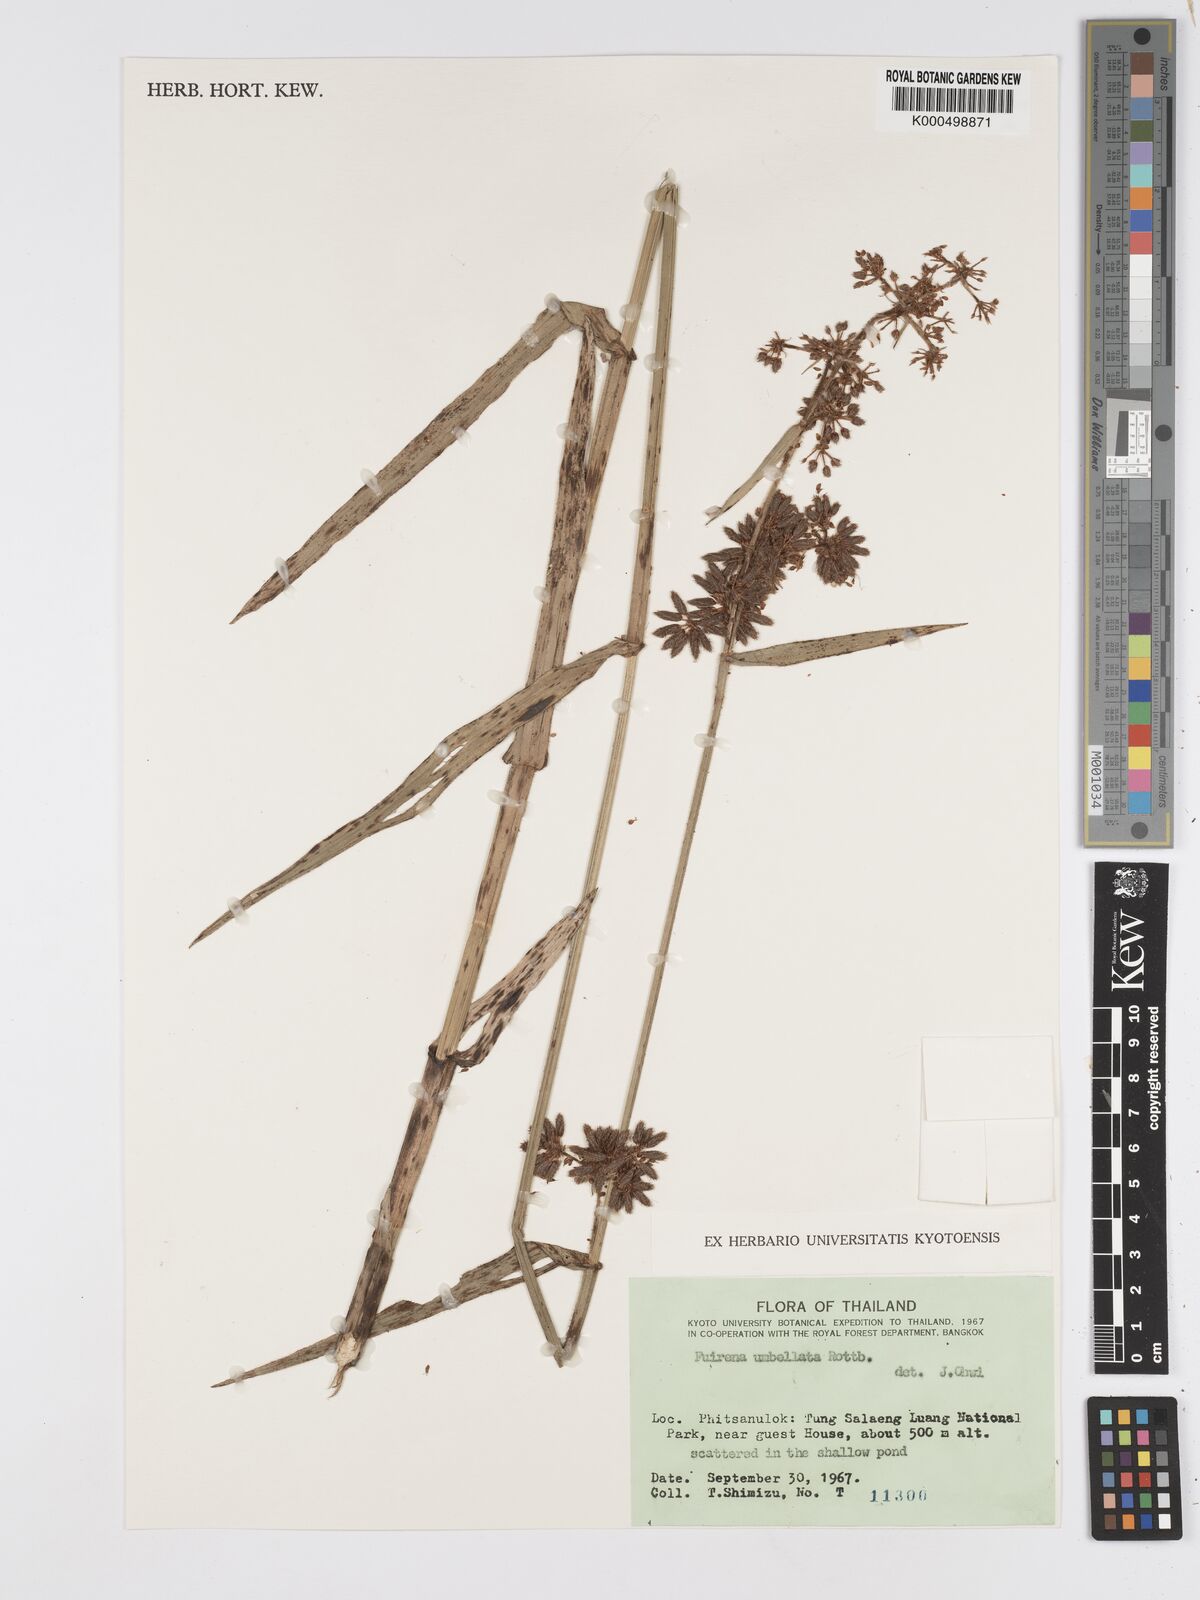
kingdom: Plantae
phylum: Tracheophyta
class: Liliopsida
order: Poales
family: Cyperaceae
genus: Fuirena
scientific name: Fuirena umbellata
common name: Yefen
